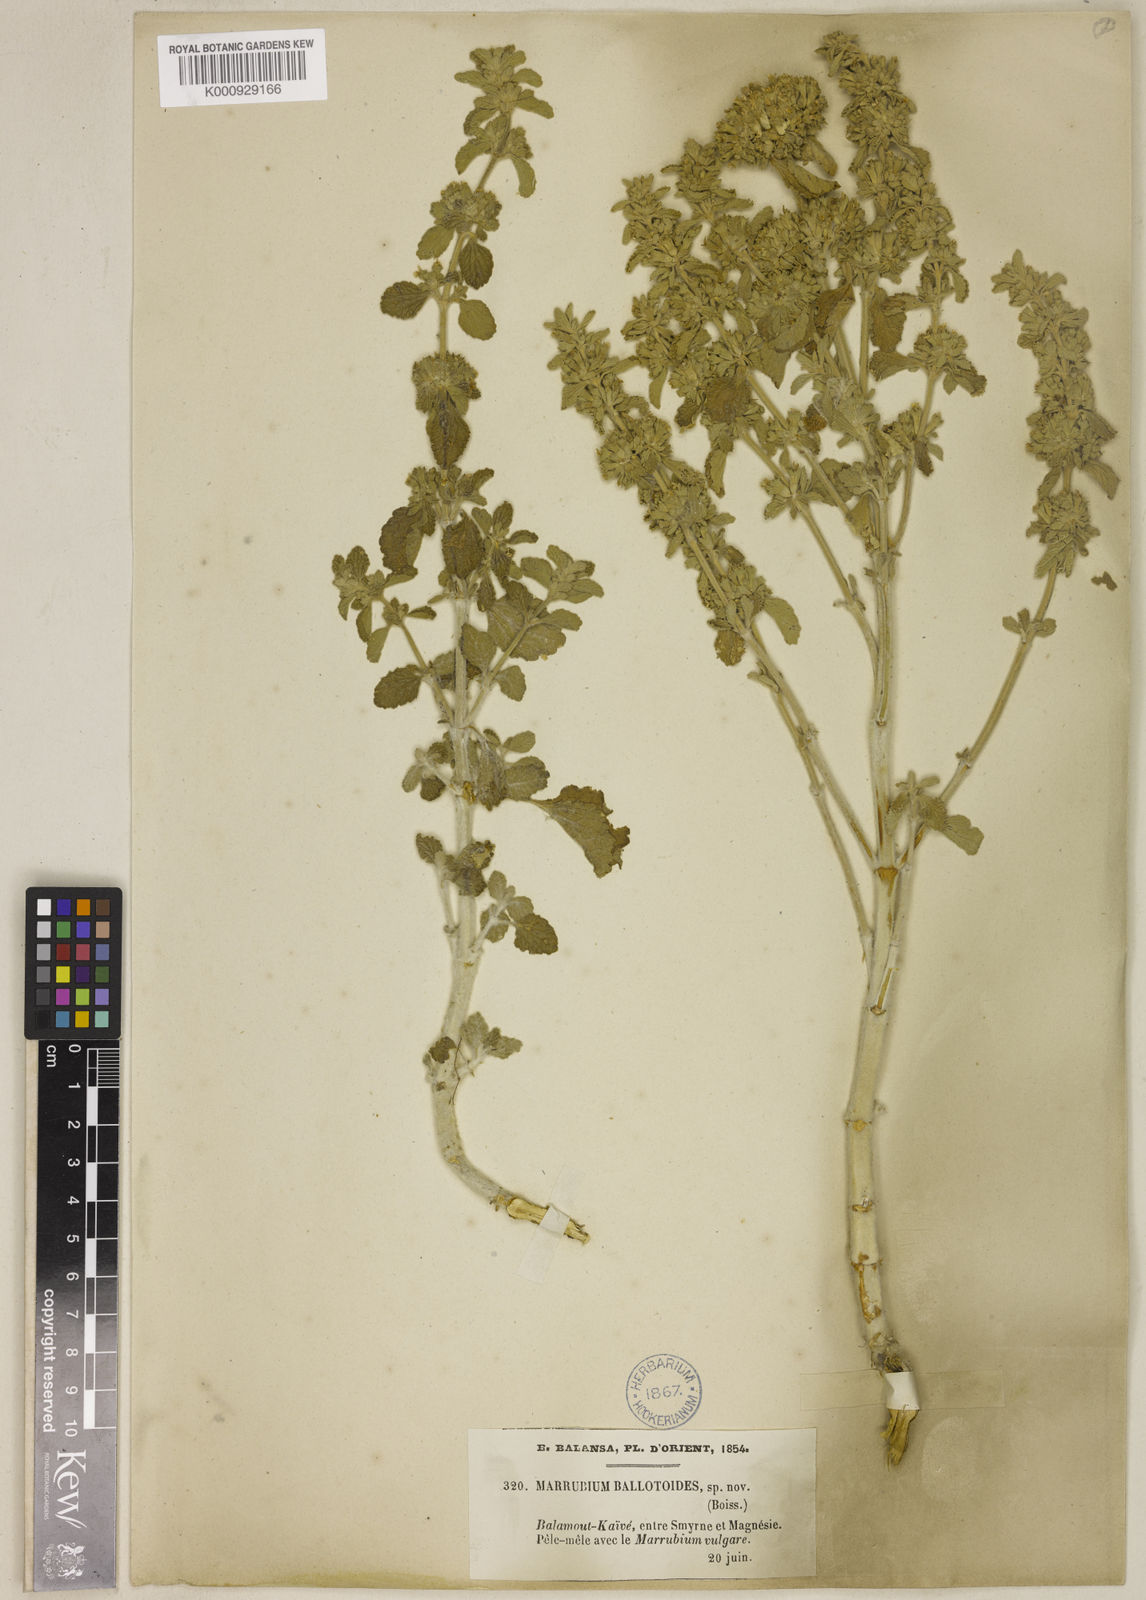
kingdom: Plantae
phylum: Tracheophyta
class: Magnoliopsida
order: Lamiales
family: Lamiaceae
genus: Marrubium
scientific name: Marrubium vulgare
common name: Horehound
